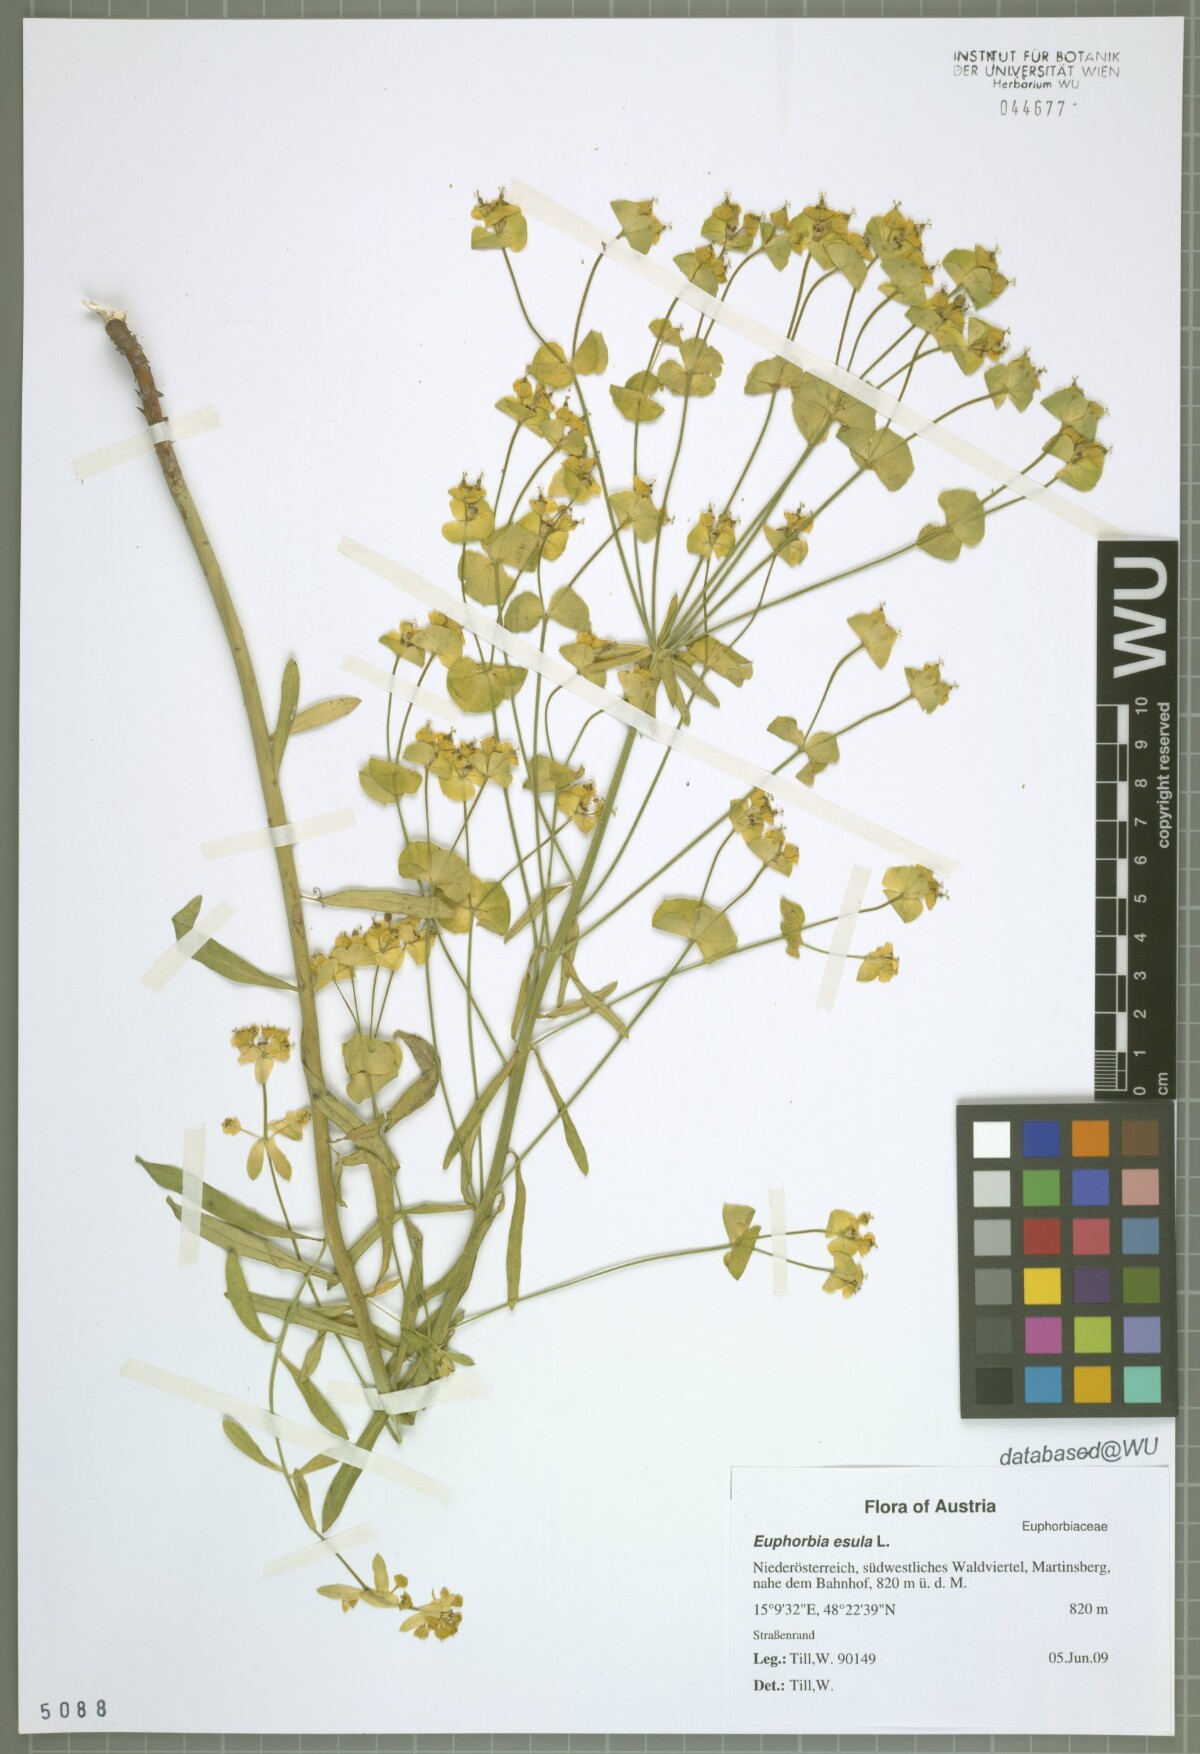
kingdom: Plantae
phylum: Tracheophyta
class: Magnoliopsida
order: Malpighiales
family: Euphorbiaceae
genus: Euphorbia
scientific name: Euphorbia esula
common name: Leafy spurge
